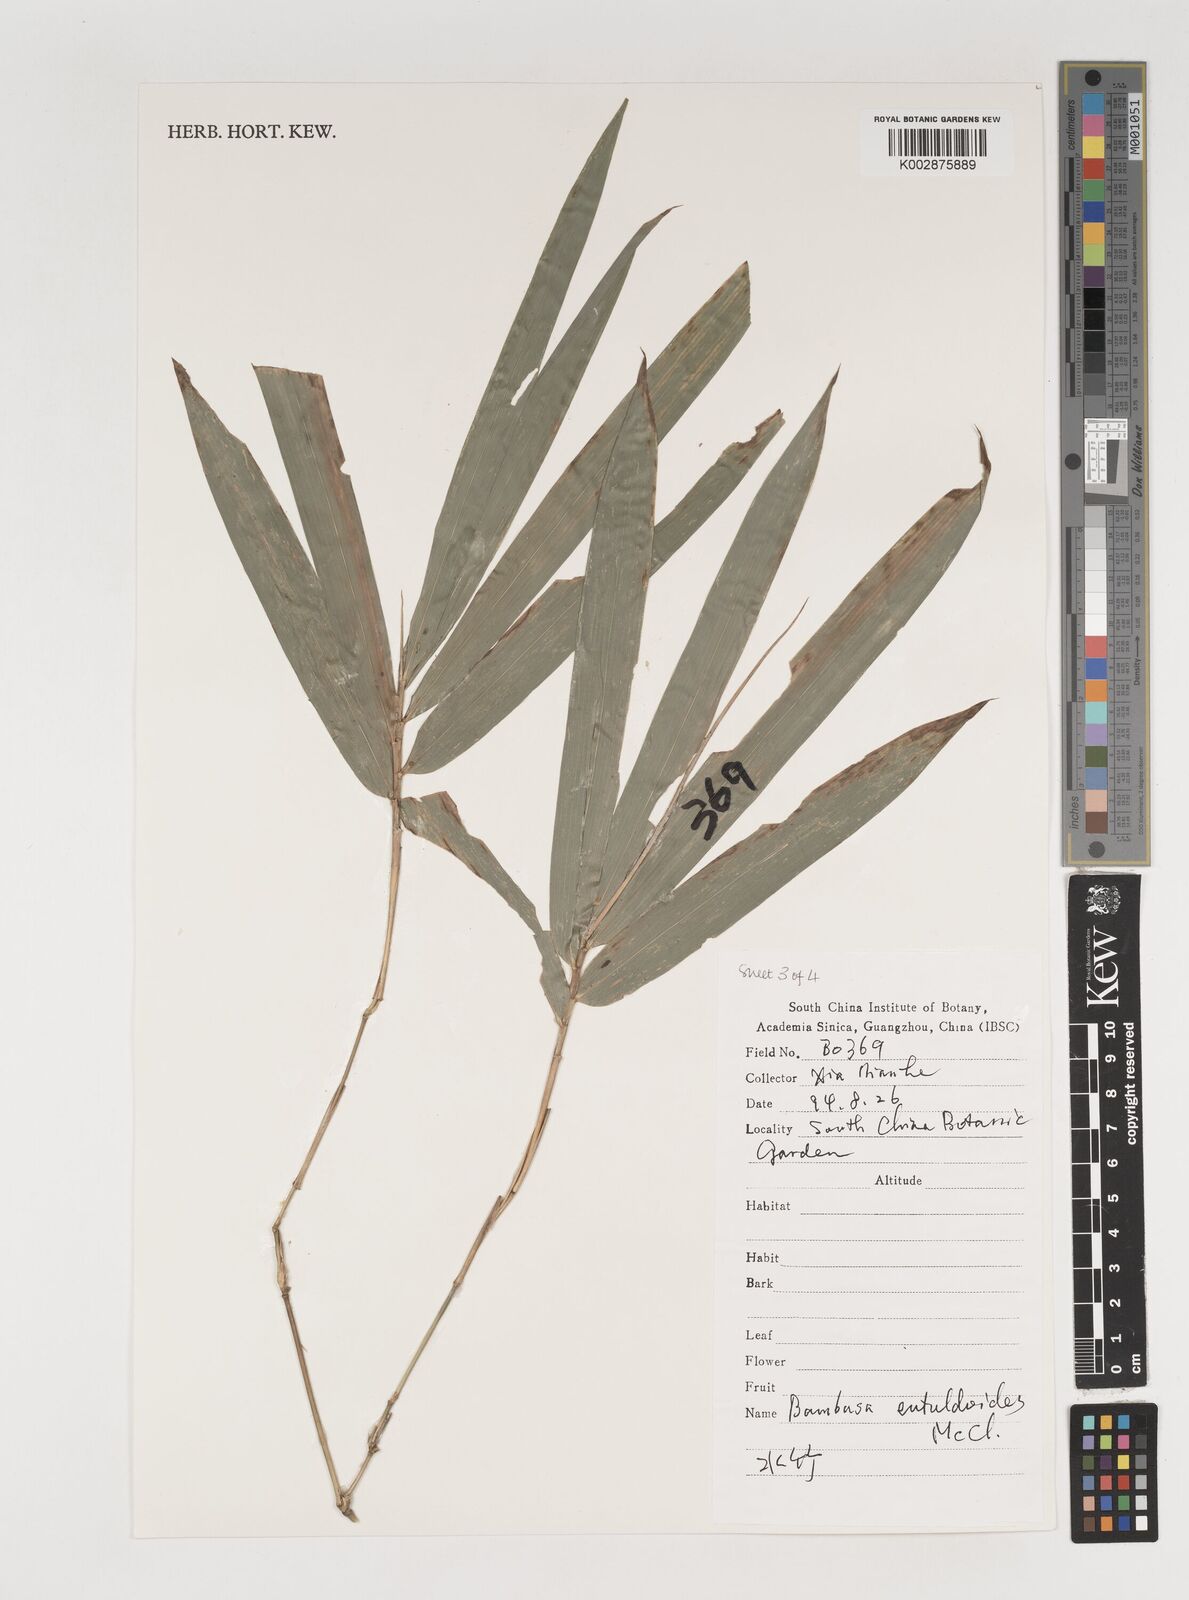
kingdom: Plantae
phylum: Tracheophyta
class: Liliopsida
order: Poales
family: Poaceae
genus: Bambusa
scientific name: Bambusa eutuldoides
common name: Dai ngan bamboo
